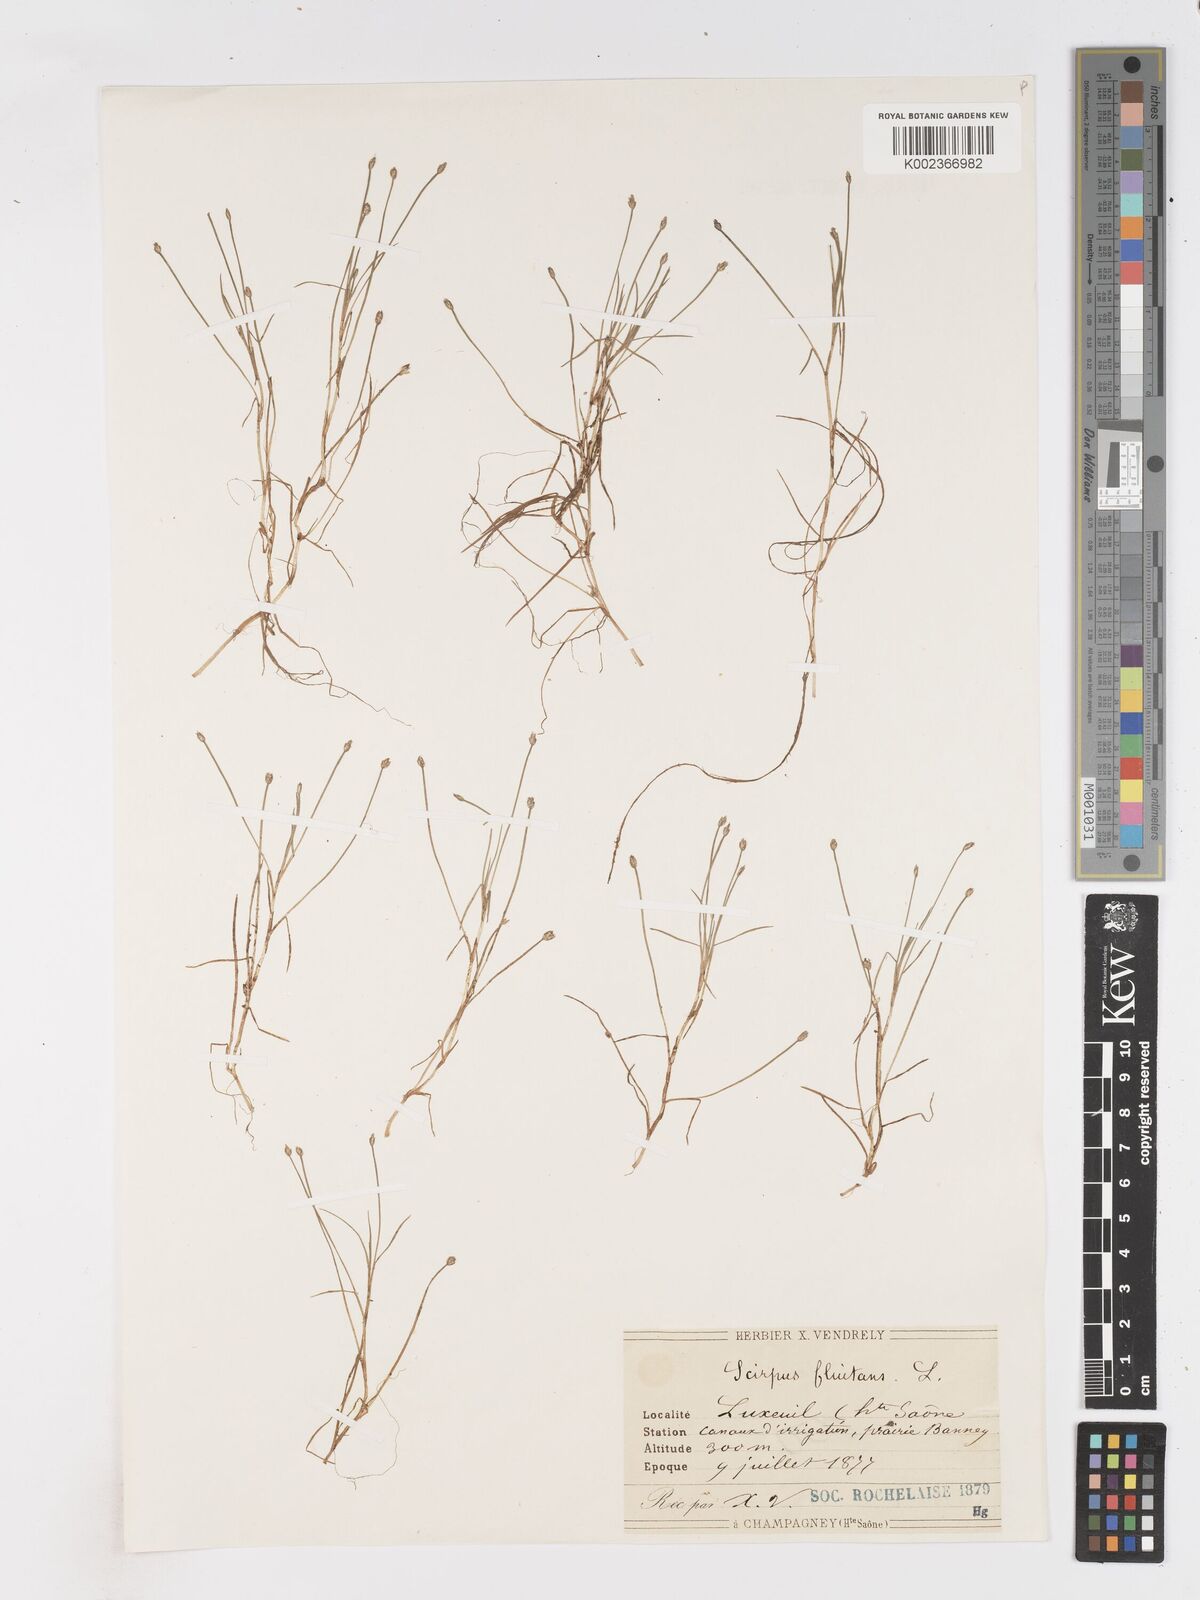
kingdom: Plantae
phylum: Tracheophyta
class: Liliopsida
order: Poales
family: Cyperaceae
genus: Isolepis
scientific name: Isolepis fluitans
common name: Floating club-rush
